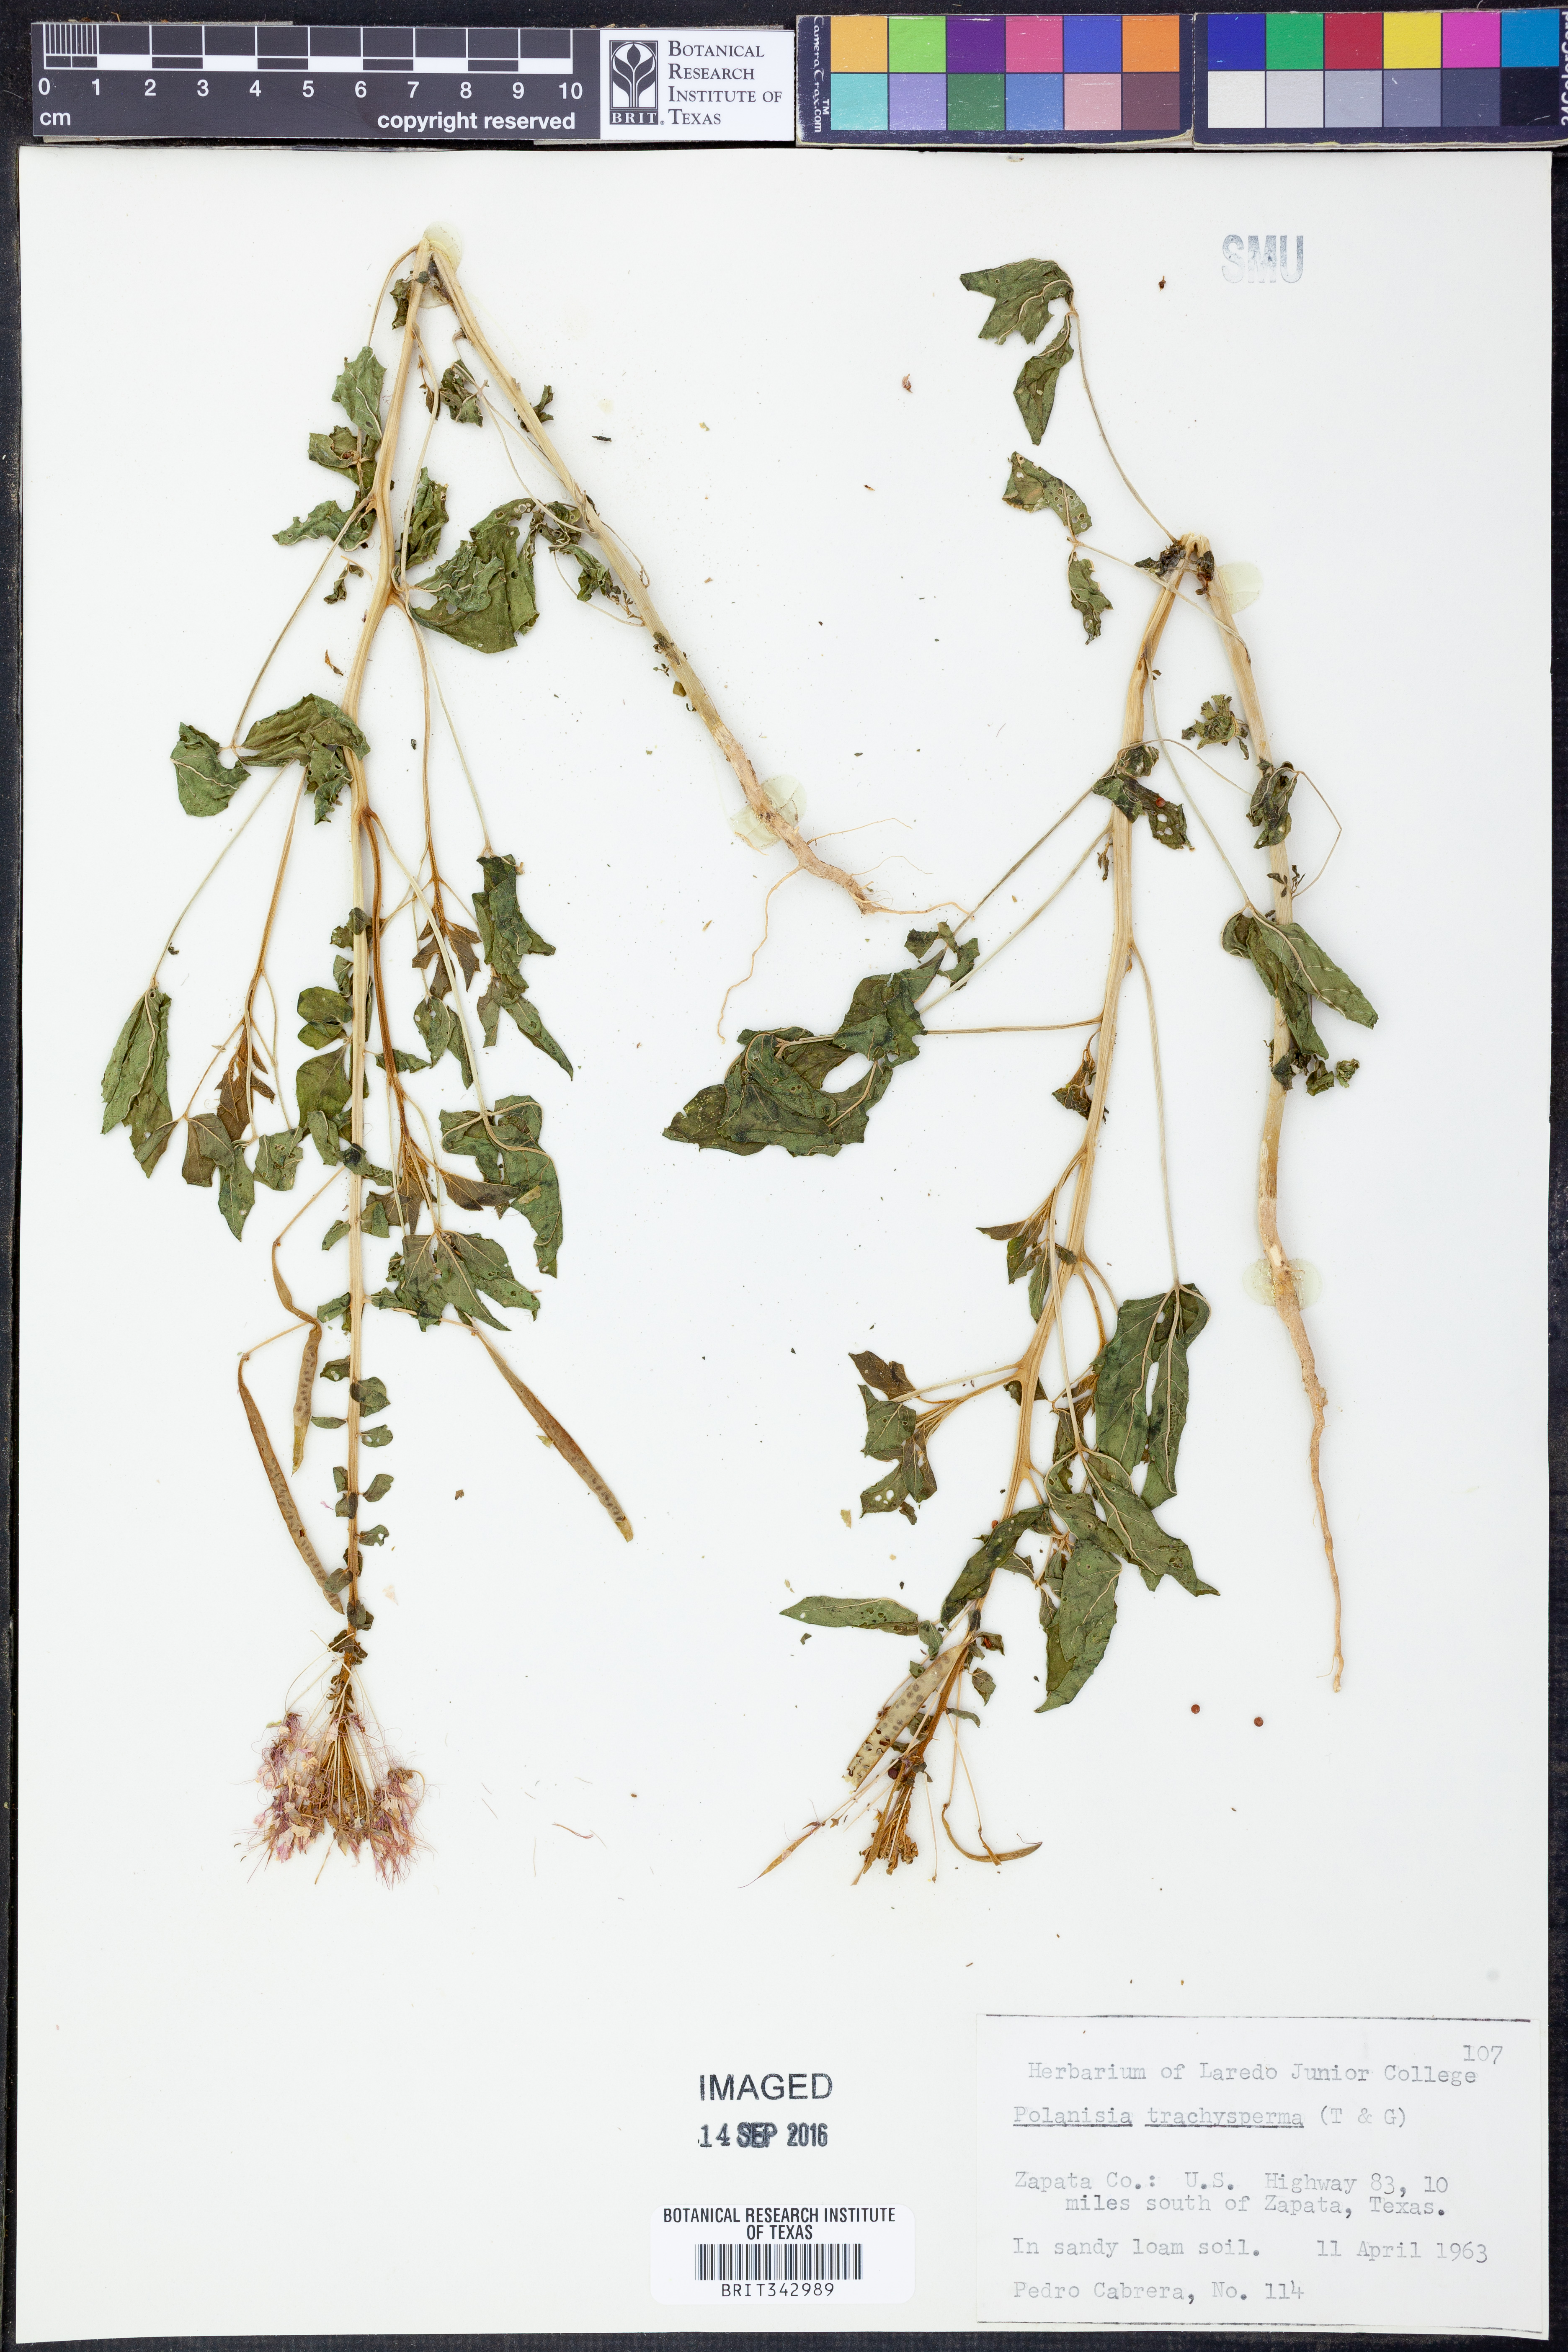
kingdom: Plantae
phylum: Tracheophyta
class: Magnoliopsida
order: Brassicales
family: Cleomaceae
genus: Polanisia
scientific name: Polanisia trachysperma
